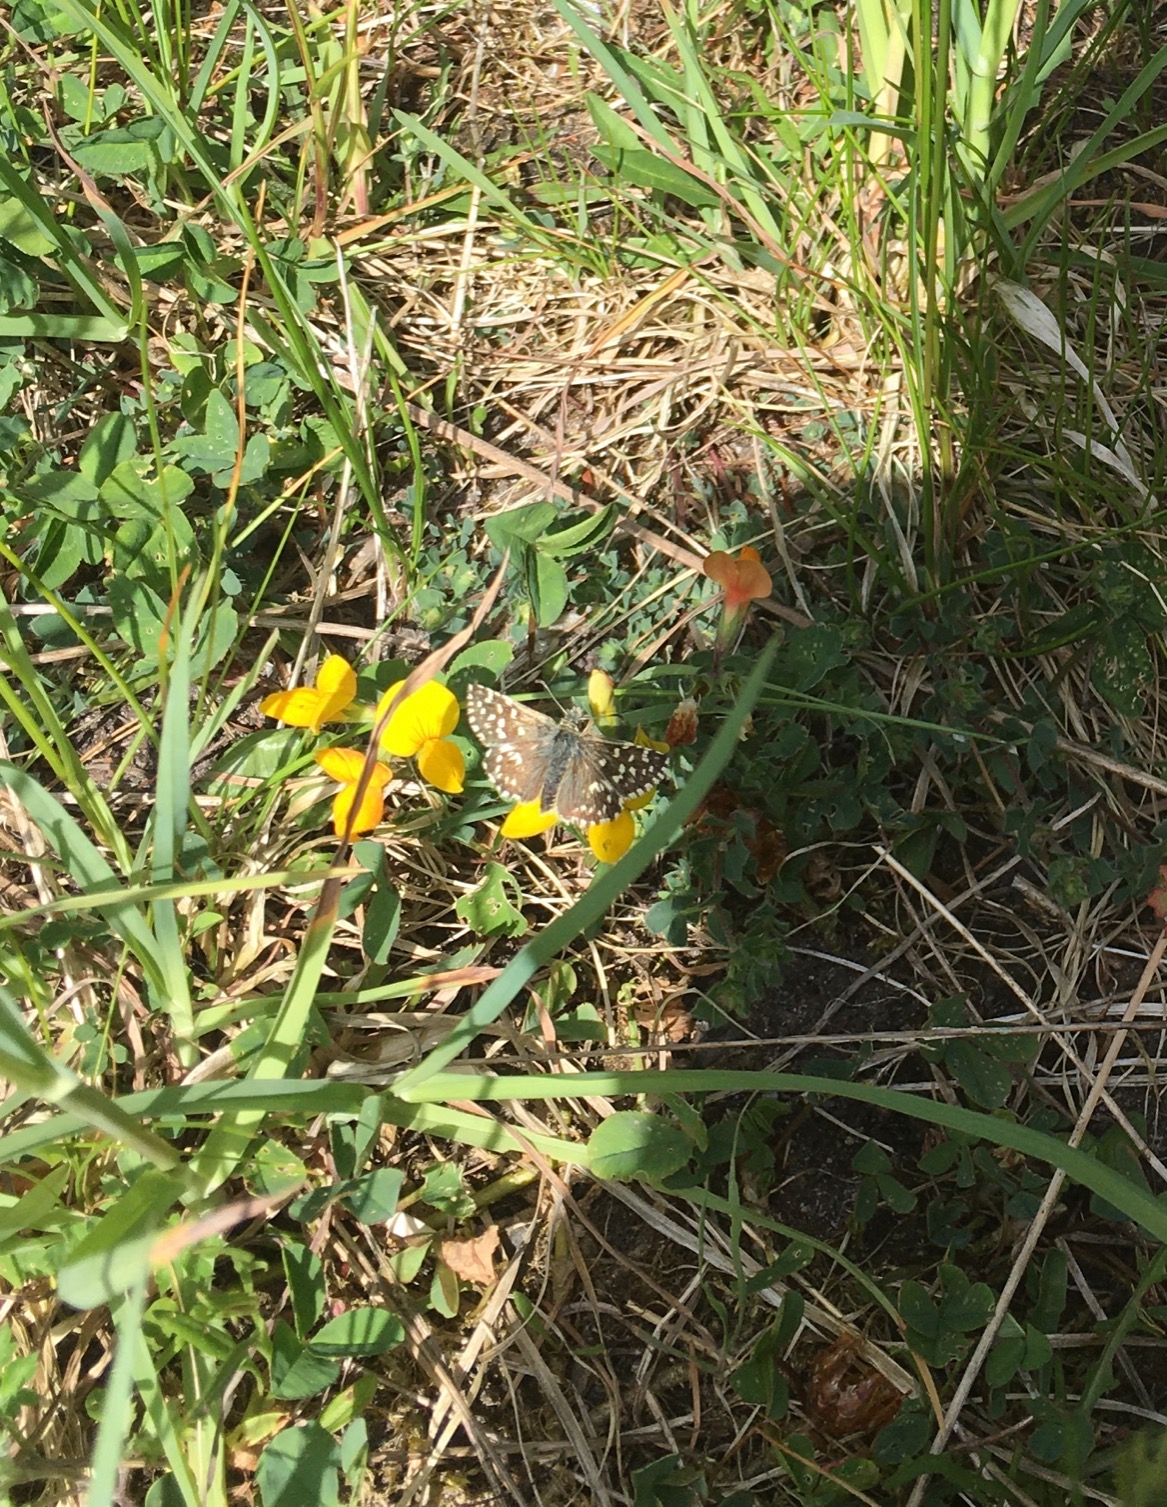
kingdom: Animalia
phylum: Arthropoda
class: Insecta
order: Lepidoptera
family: Hesperiidae
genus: Pyrgus
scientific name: Pyrgus malvae
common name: Spættet bredpande
